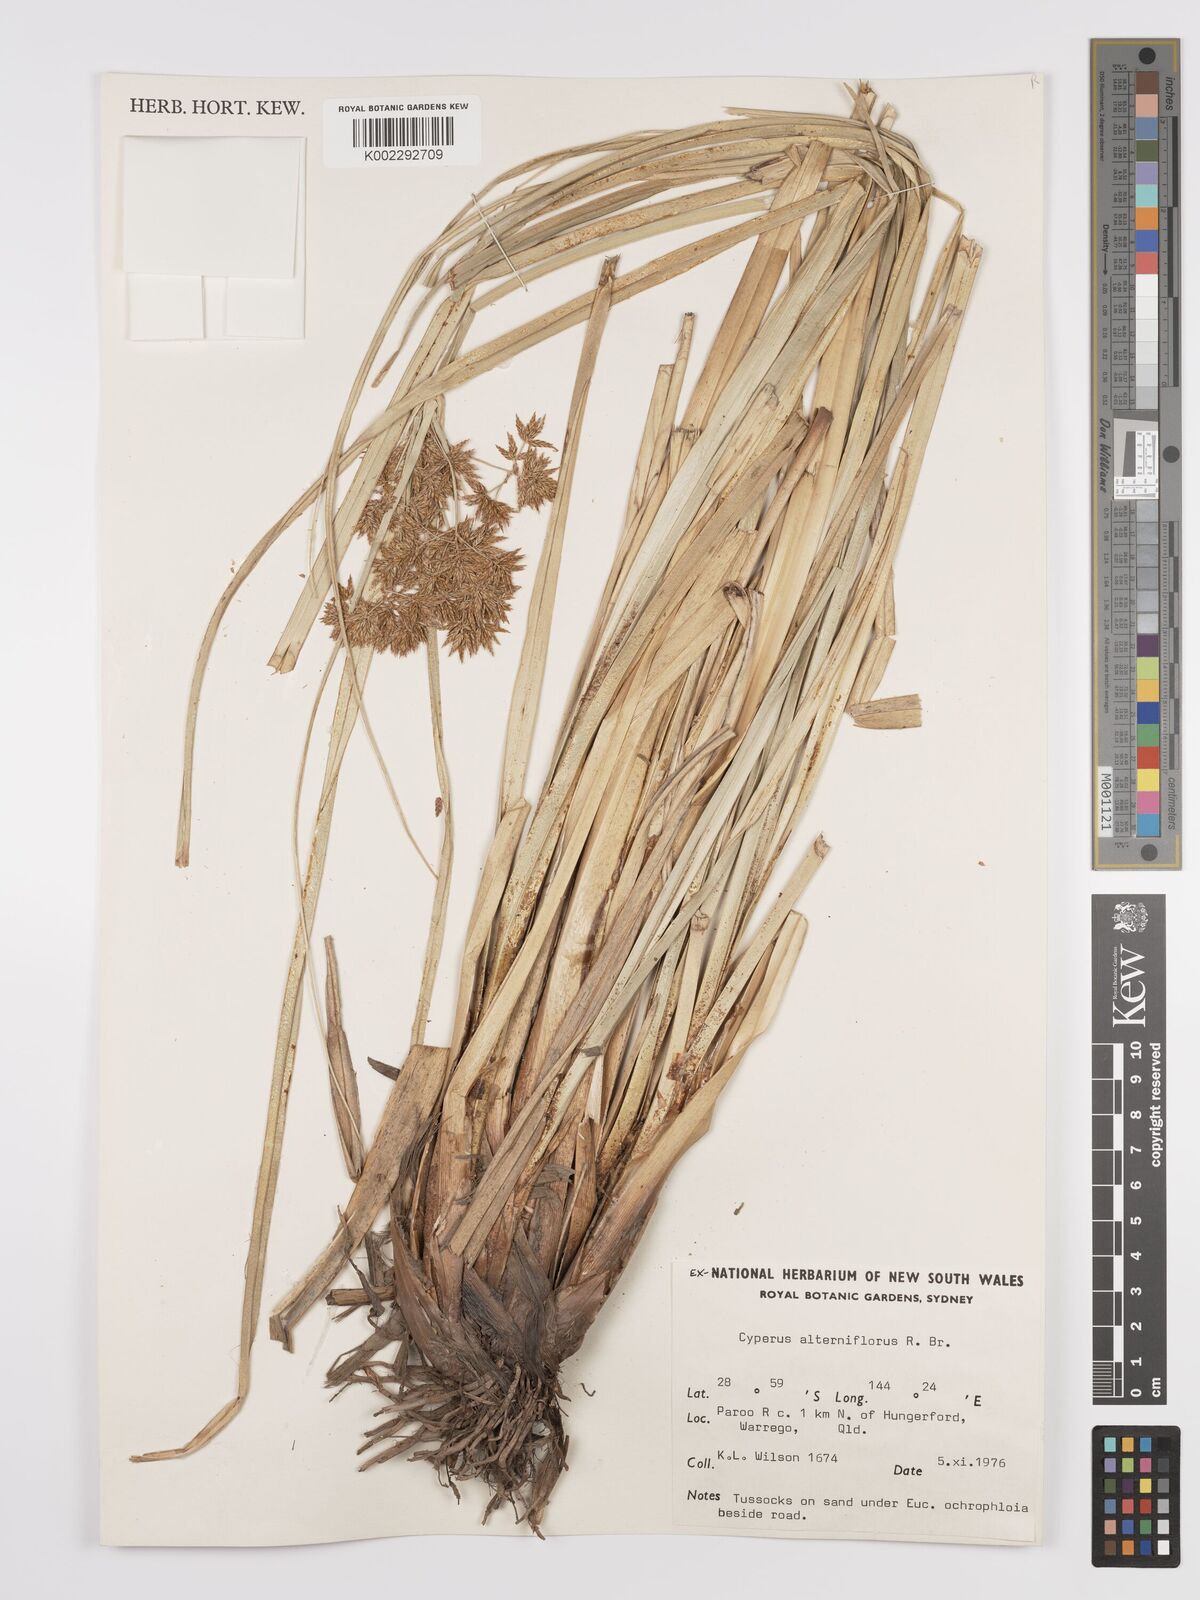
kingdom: Plantae
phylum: Tracheophyta
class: Liliopsida
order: Poales
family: Cyperaceae
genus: Cyperus
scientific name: Cyperus alopecuroides
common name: Foxtail flatsedge
